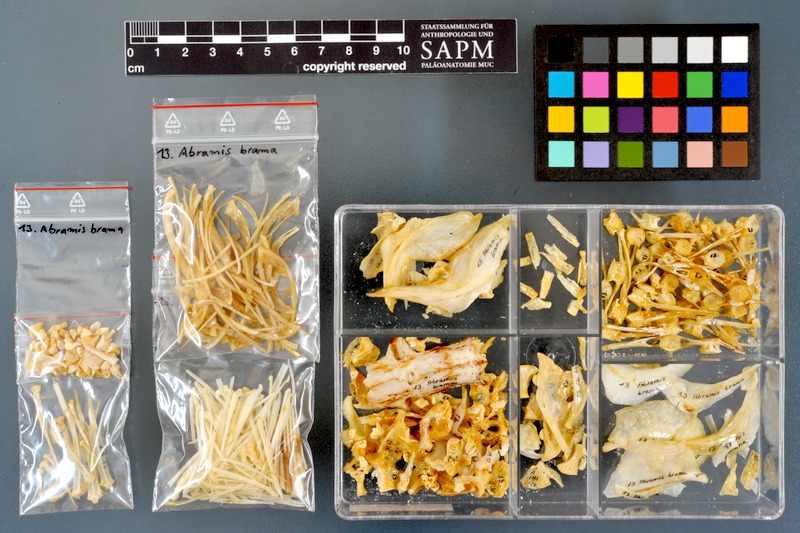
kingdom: Animalia
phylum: Chordata
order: Cypriniformes
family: Cyprinidae
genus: Abramis
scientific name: Abramis brama
